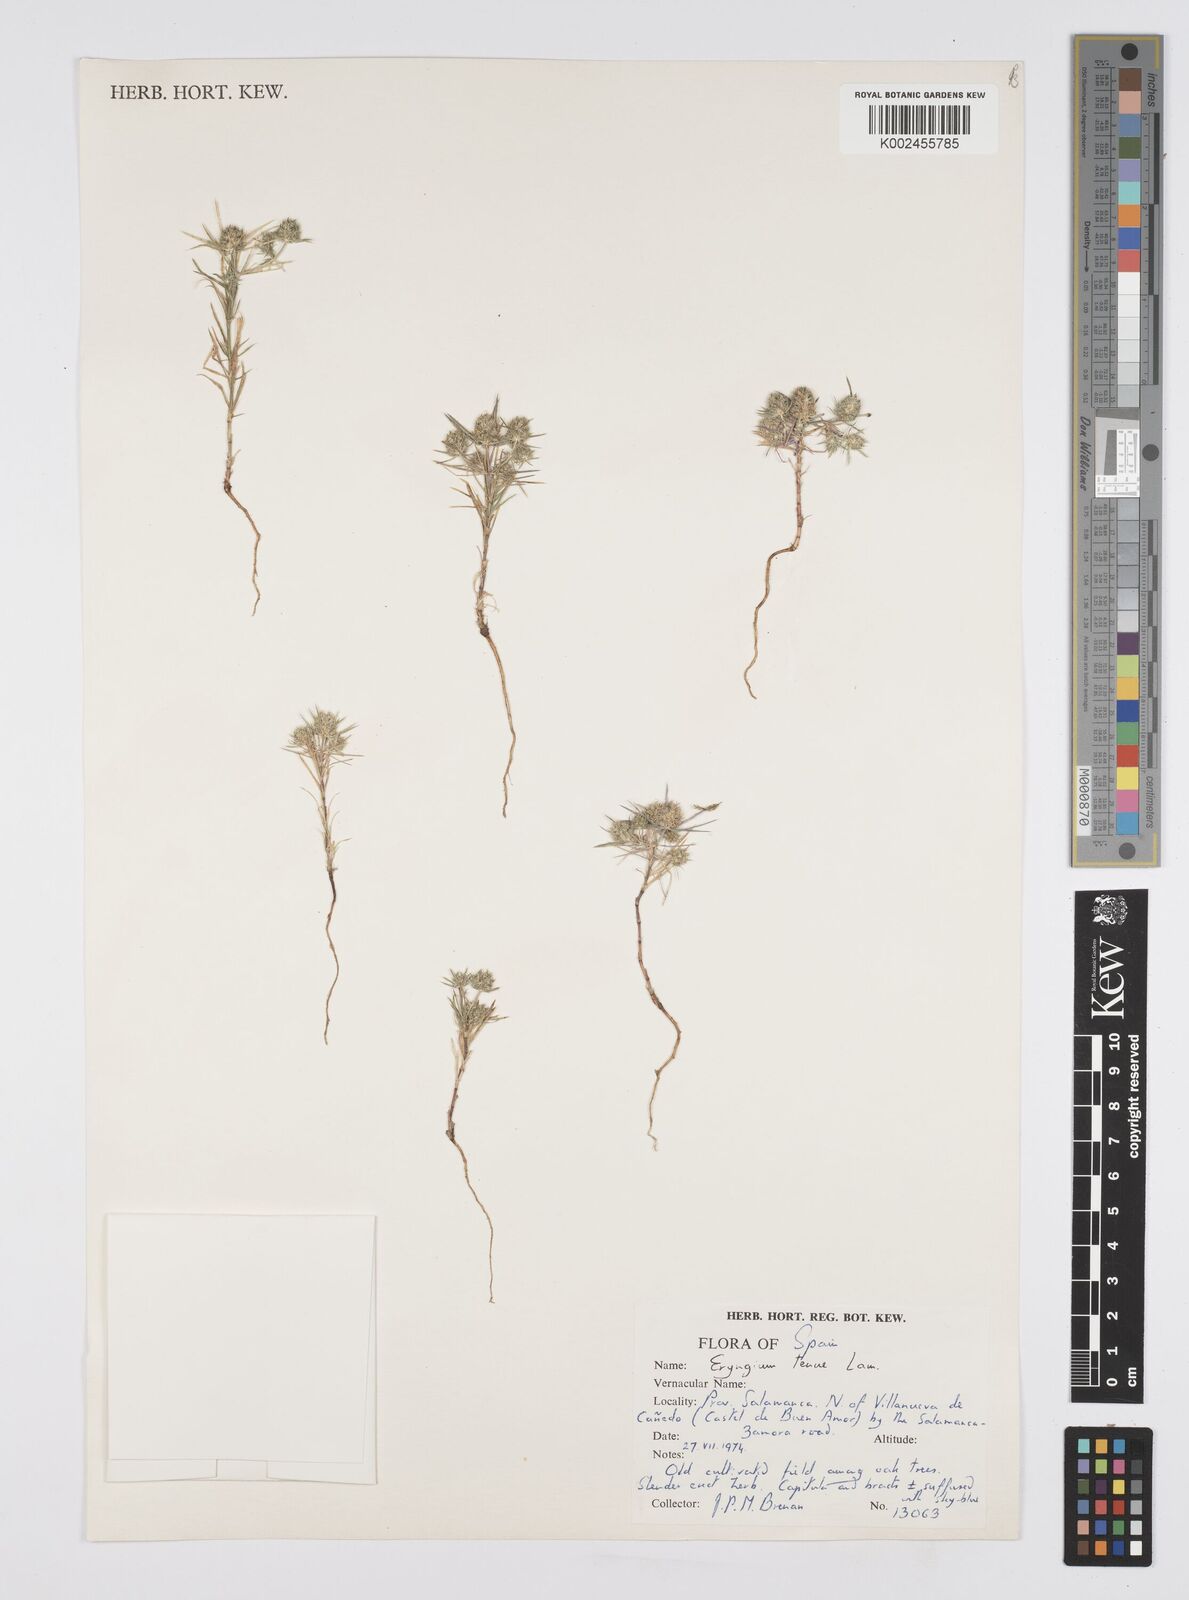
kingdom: Plantae
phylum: Tracheophyta
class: Magnoliopsida
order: Apiales
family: Apiaceae
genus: Eryngium
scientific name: Eryngium
